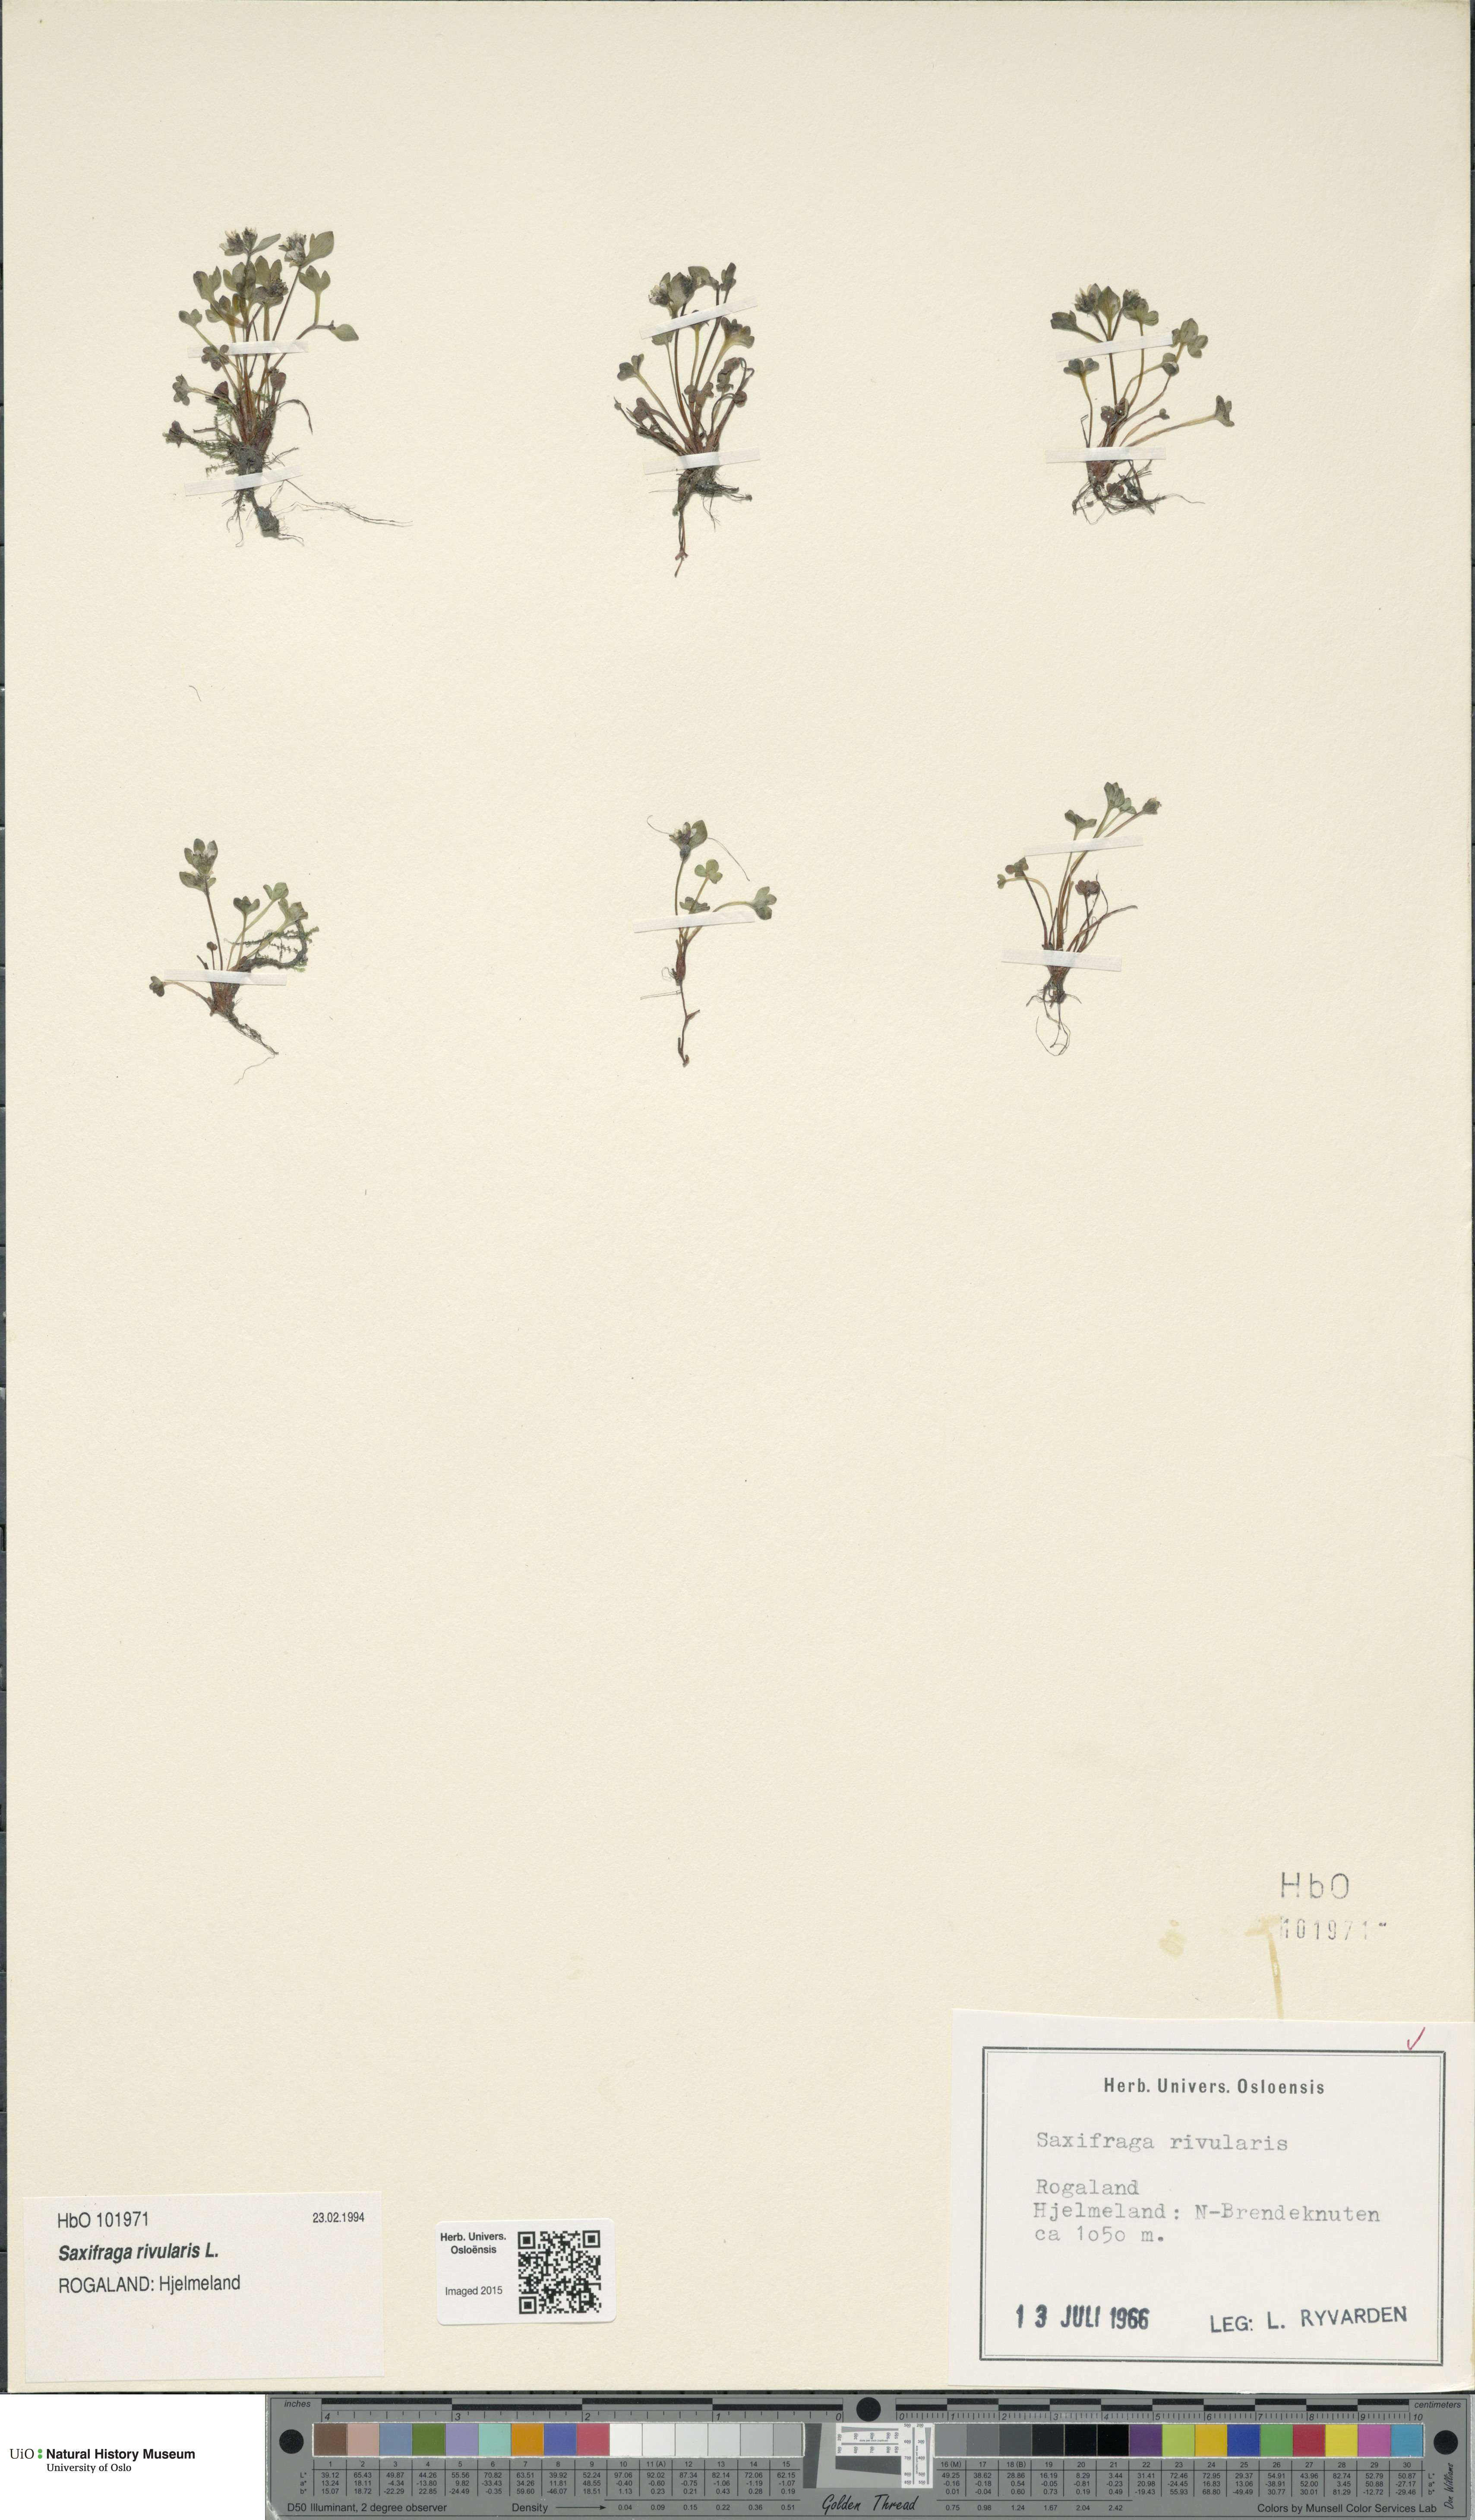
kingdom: Plantae
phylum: Tracheophyta
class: Magnoliopsida
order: Saxifragales
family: Saxifragaceae
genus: Saxifraga
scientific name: Saxifraga rivularis
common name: Highland saxifrage
